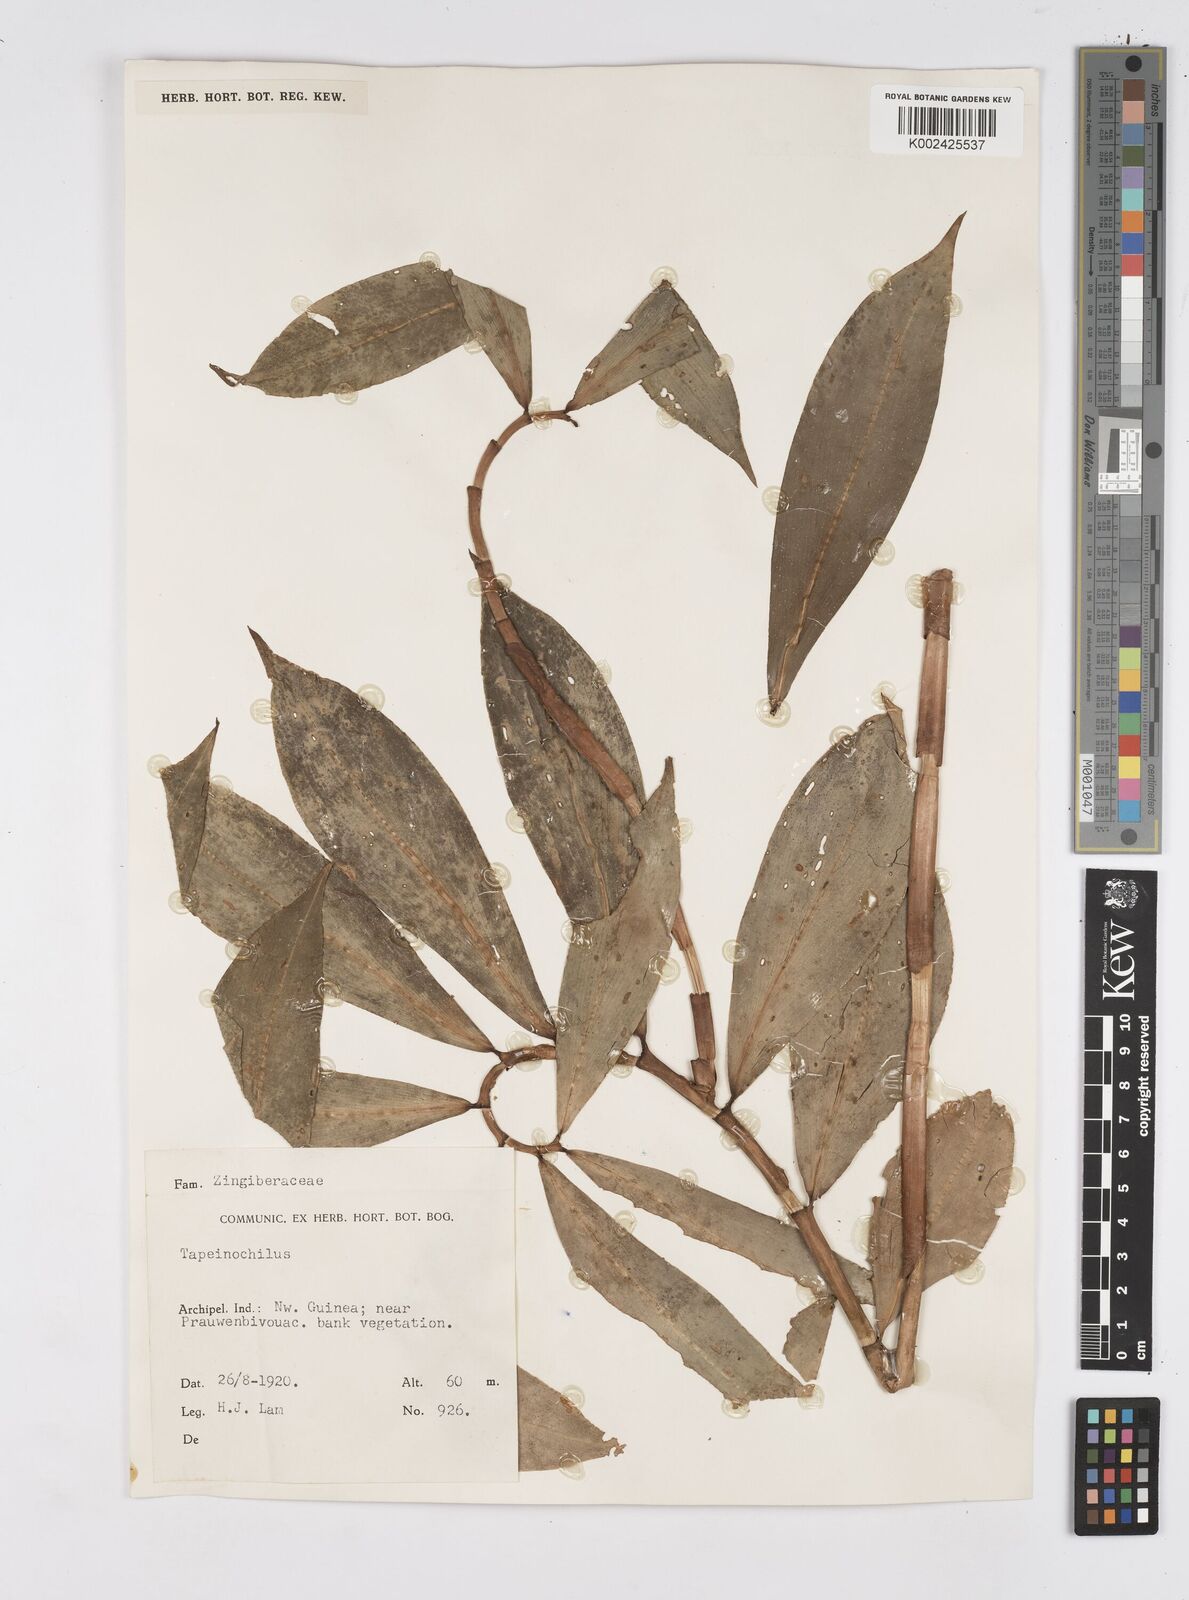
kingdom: Plantae
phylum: Tracheophyta
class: Liliopsida
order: Zingiberales
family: Costaceae
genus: Tapeinochilos
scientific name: Tapeinochilos
